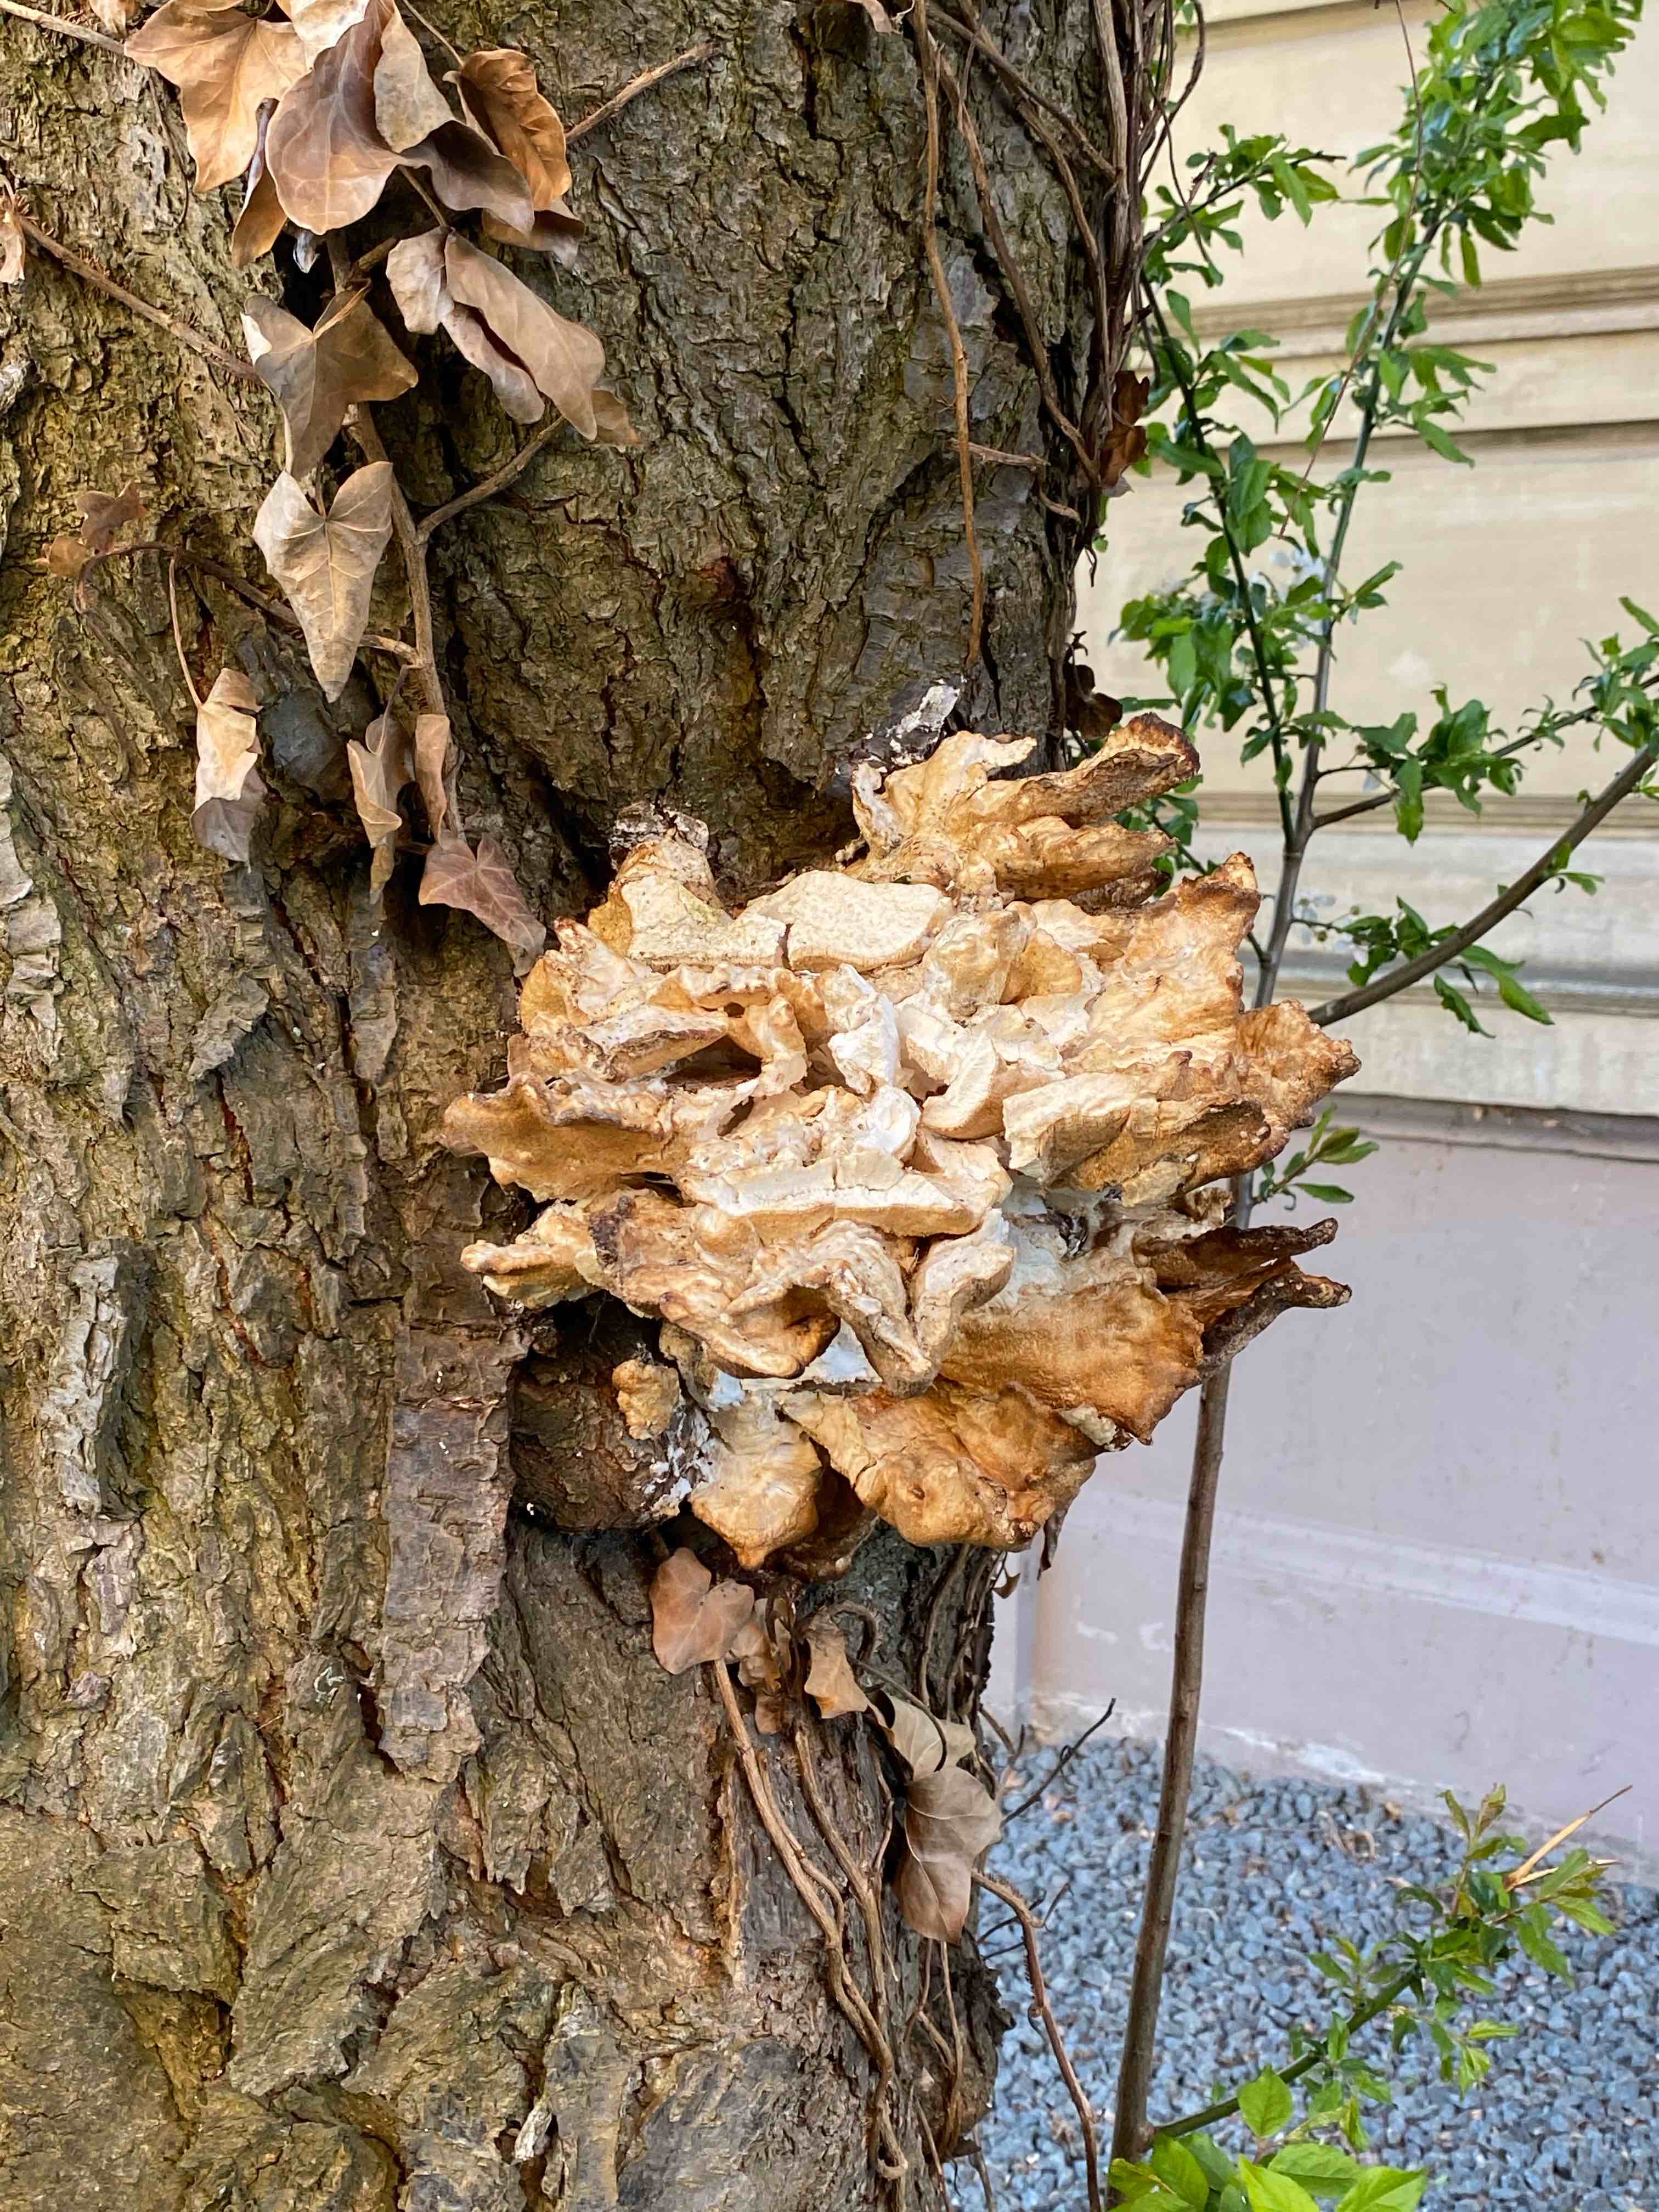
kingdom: Fungi
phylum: Basidiomycota
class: Agaricomycetes
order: Polyporales
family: Laetiporaceae
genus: Laetiporus
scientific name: Laetiporus sulphureus
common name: svovlporesvamp
